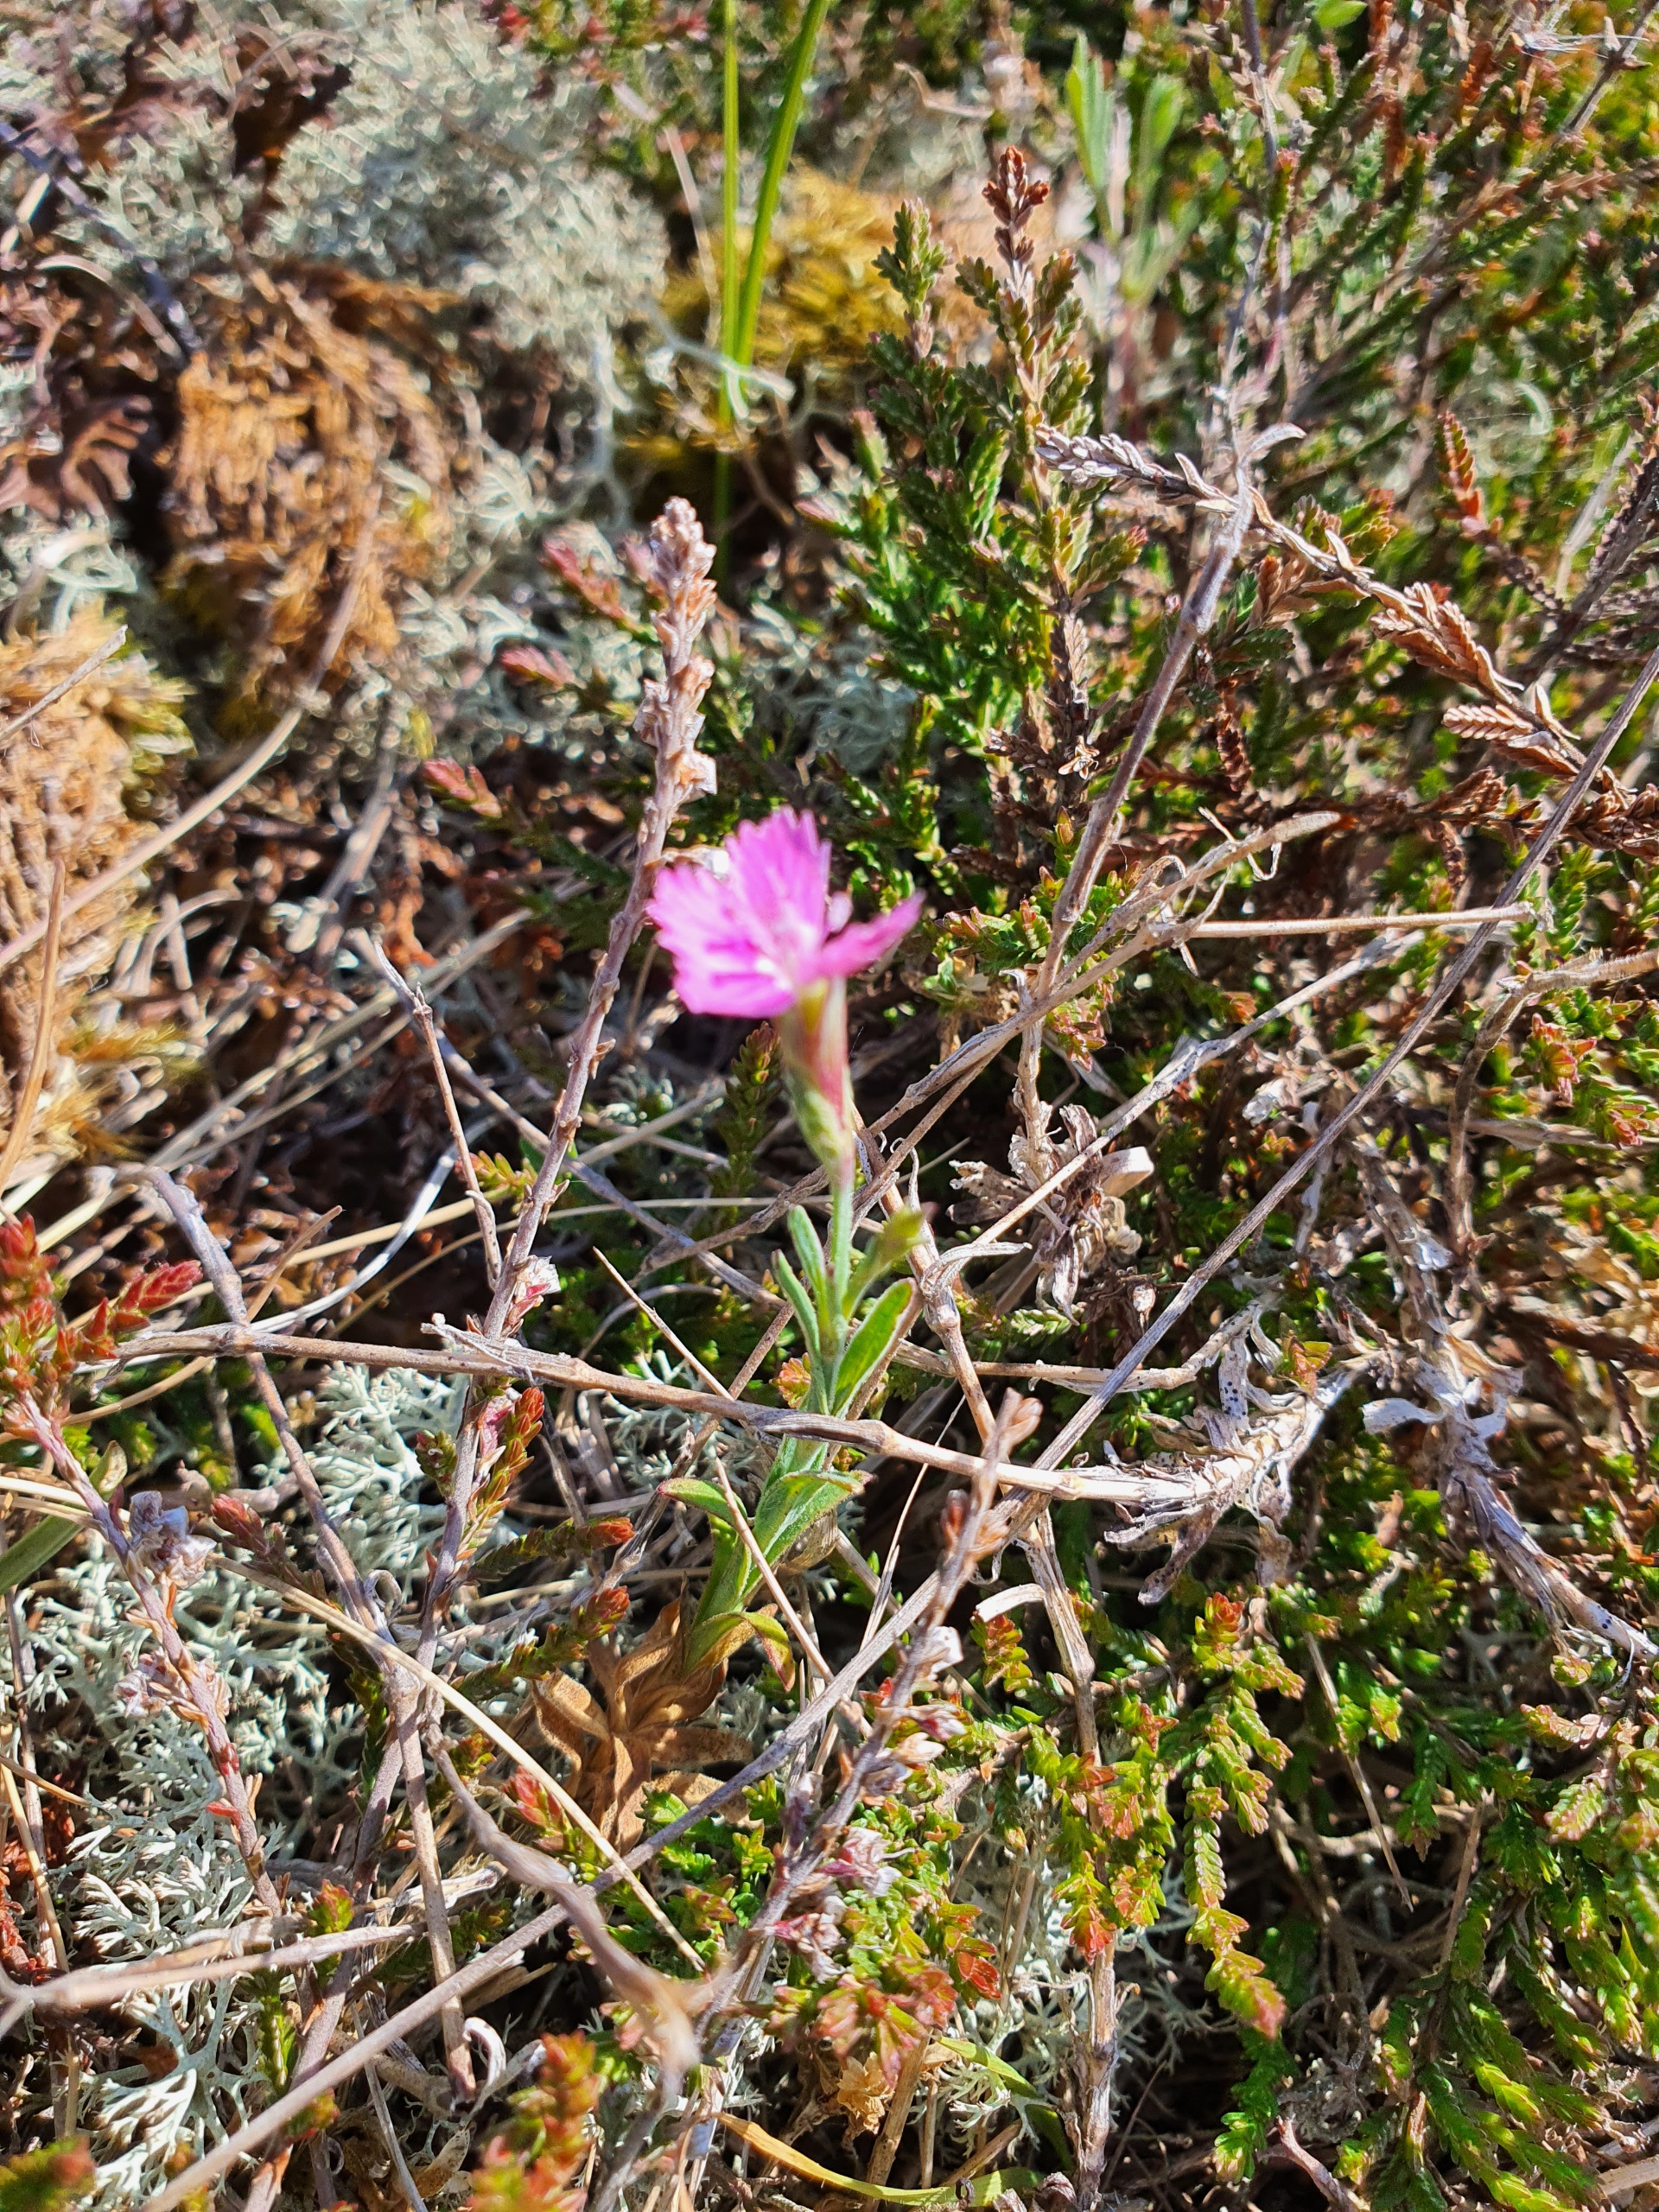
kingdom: Plantae
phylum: Tracheophyta
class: Magnoliopsida
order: Caryophyllales
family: Caryophyllaceae
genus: Dianthus
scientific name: Dianthus deltoides
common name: Bakke-nellike
